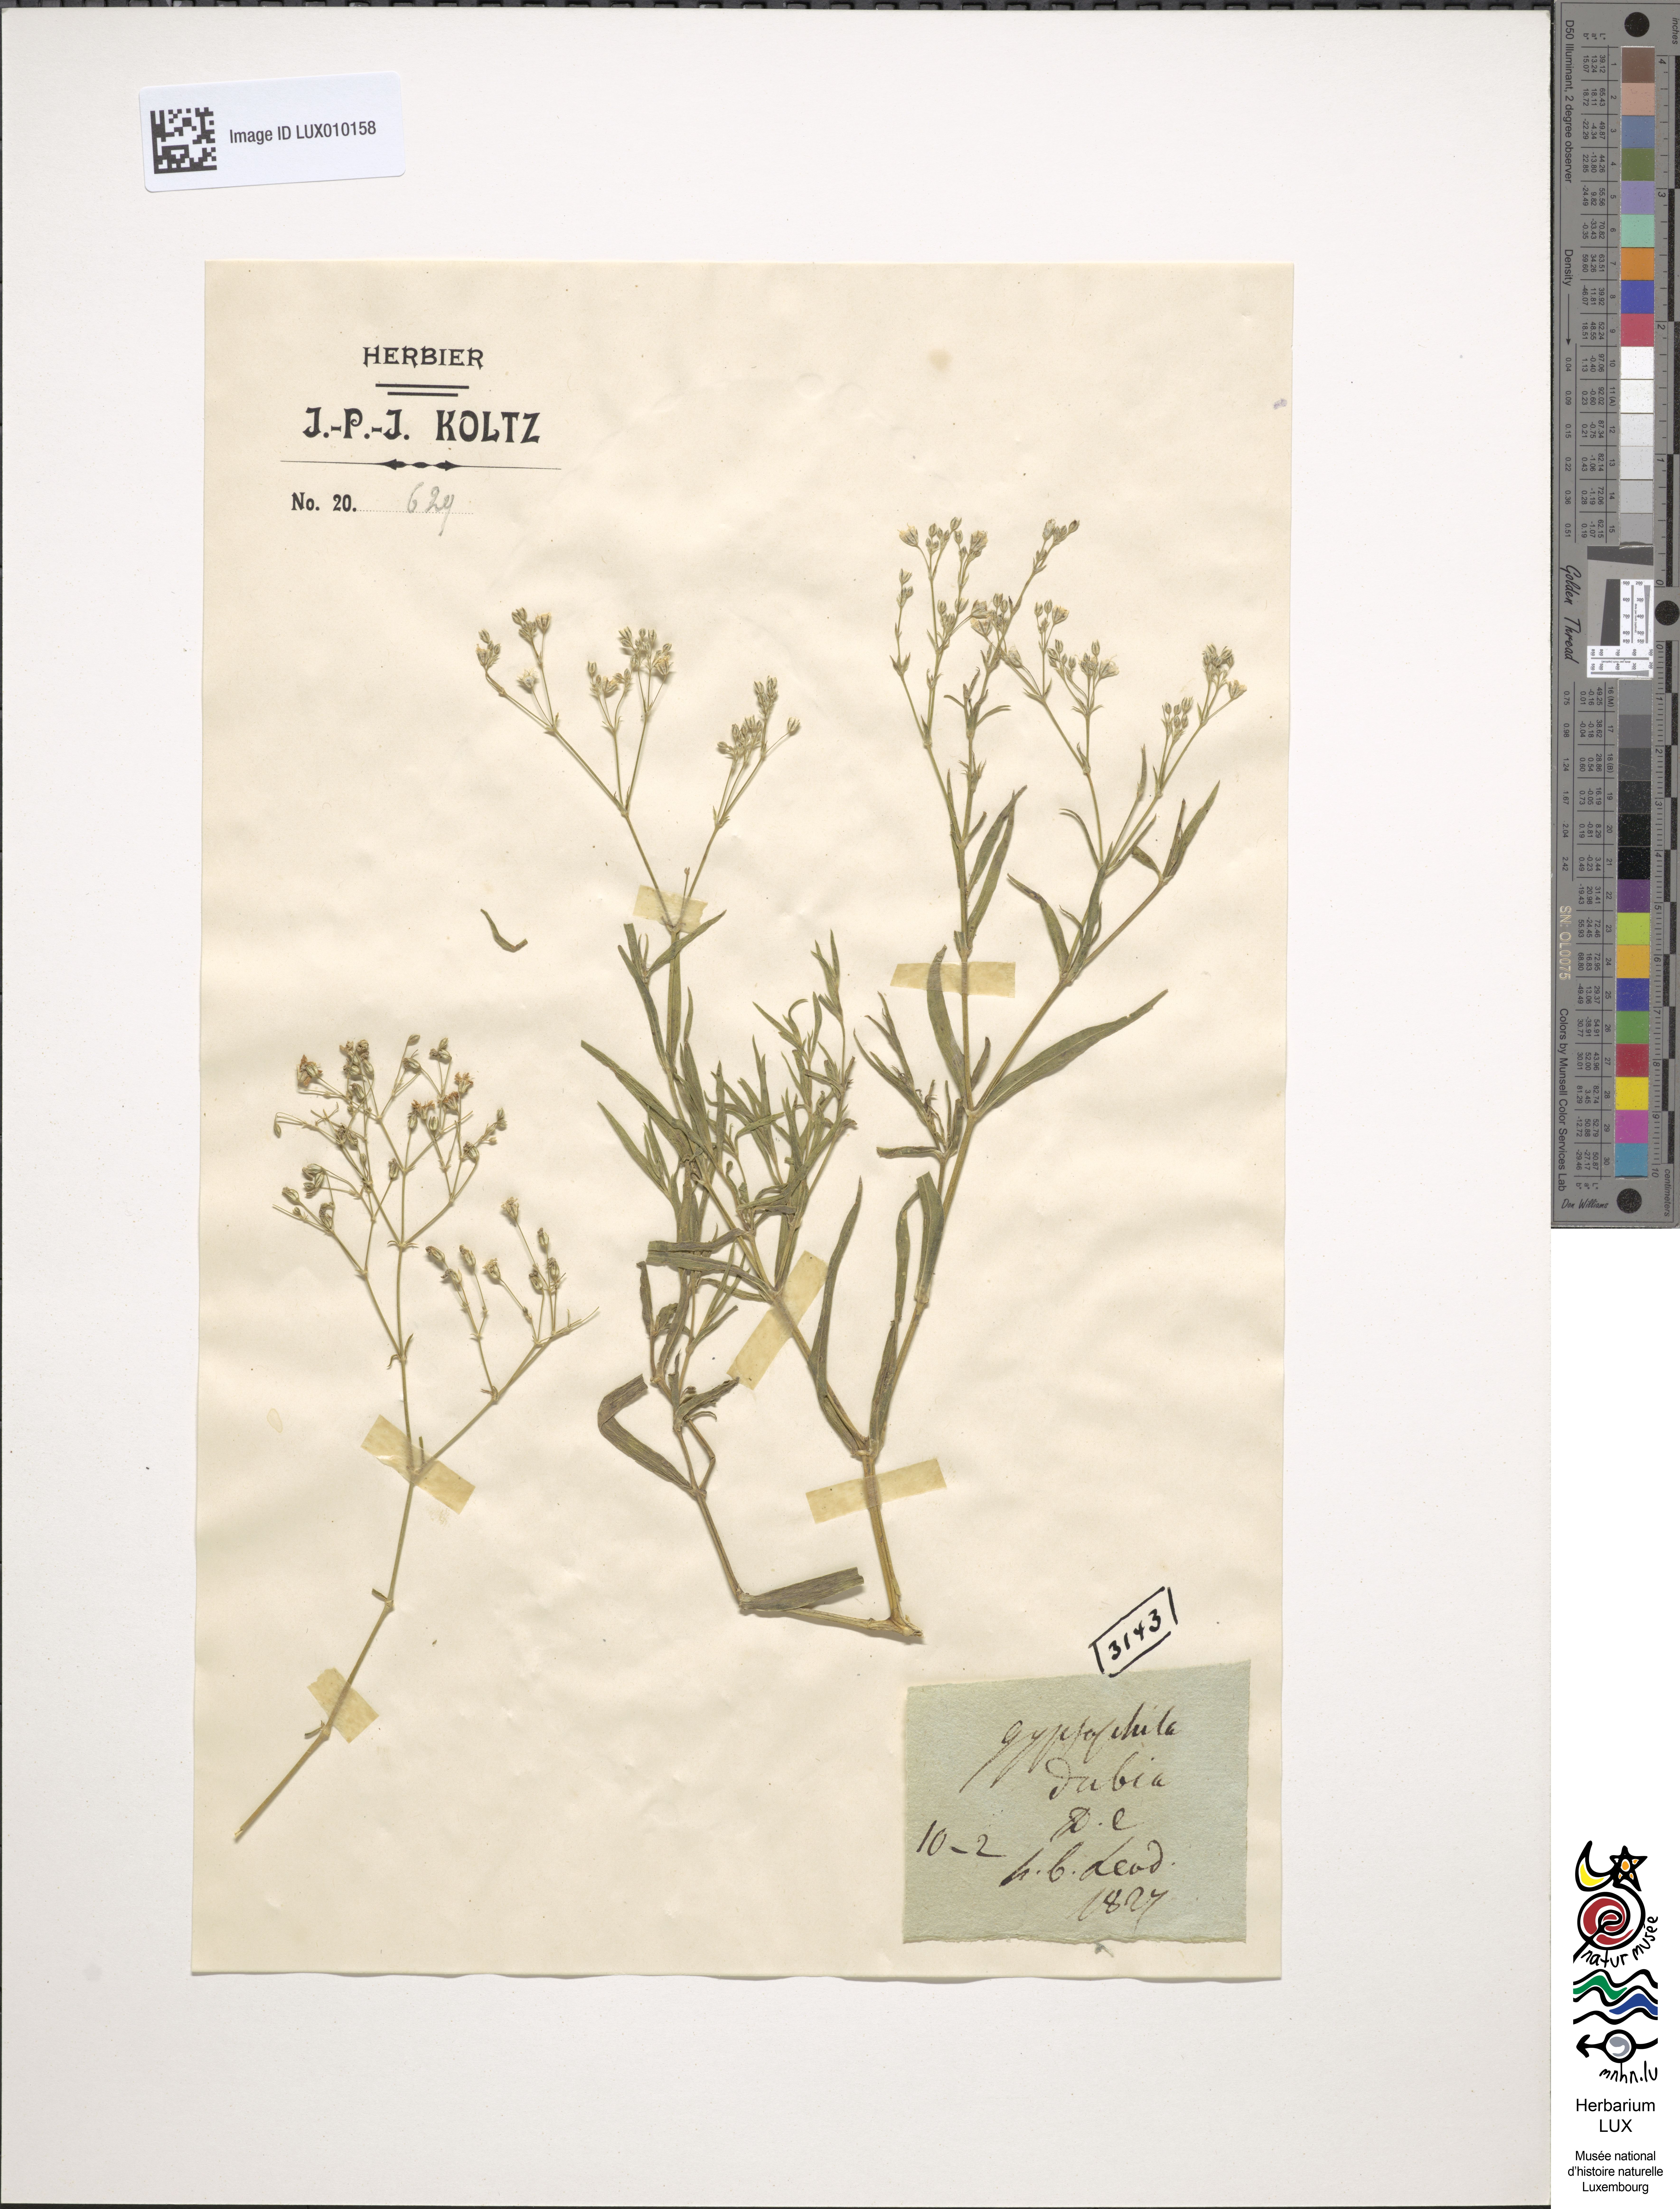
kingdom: Plantae
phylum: Tracheophyta
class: Magnoliopsida
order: Caryophyllales
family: Caryophyllaceae
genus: Gypsophila
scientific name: Gypsophila repens
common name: Creeping baby's-breath
